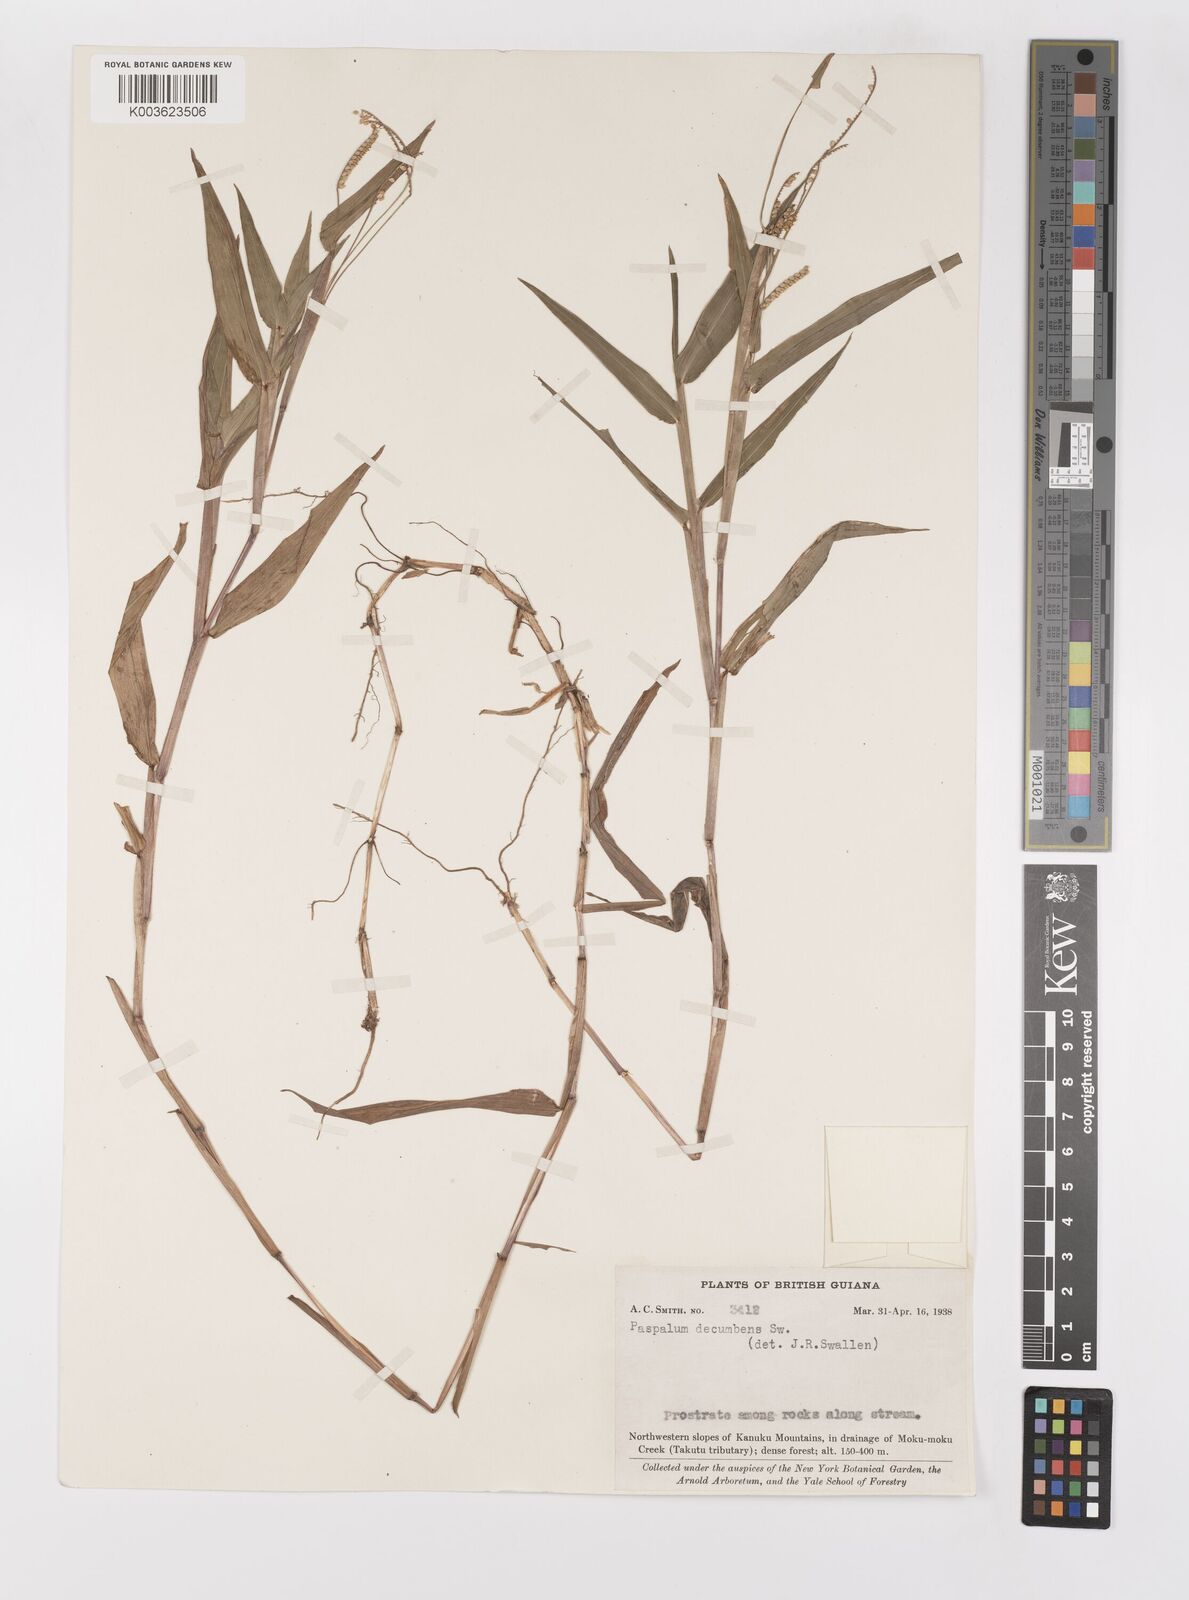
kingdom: Plantae
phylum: Tracheophyta
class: Liliopsida
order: Poales
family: Poaceae
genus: Paspalum
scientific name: Paspalum decumbens
